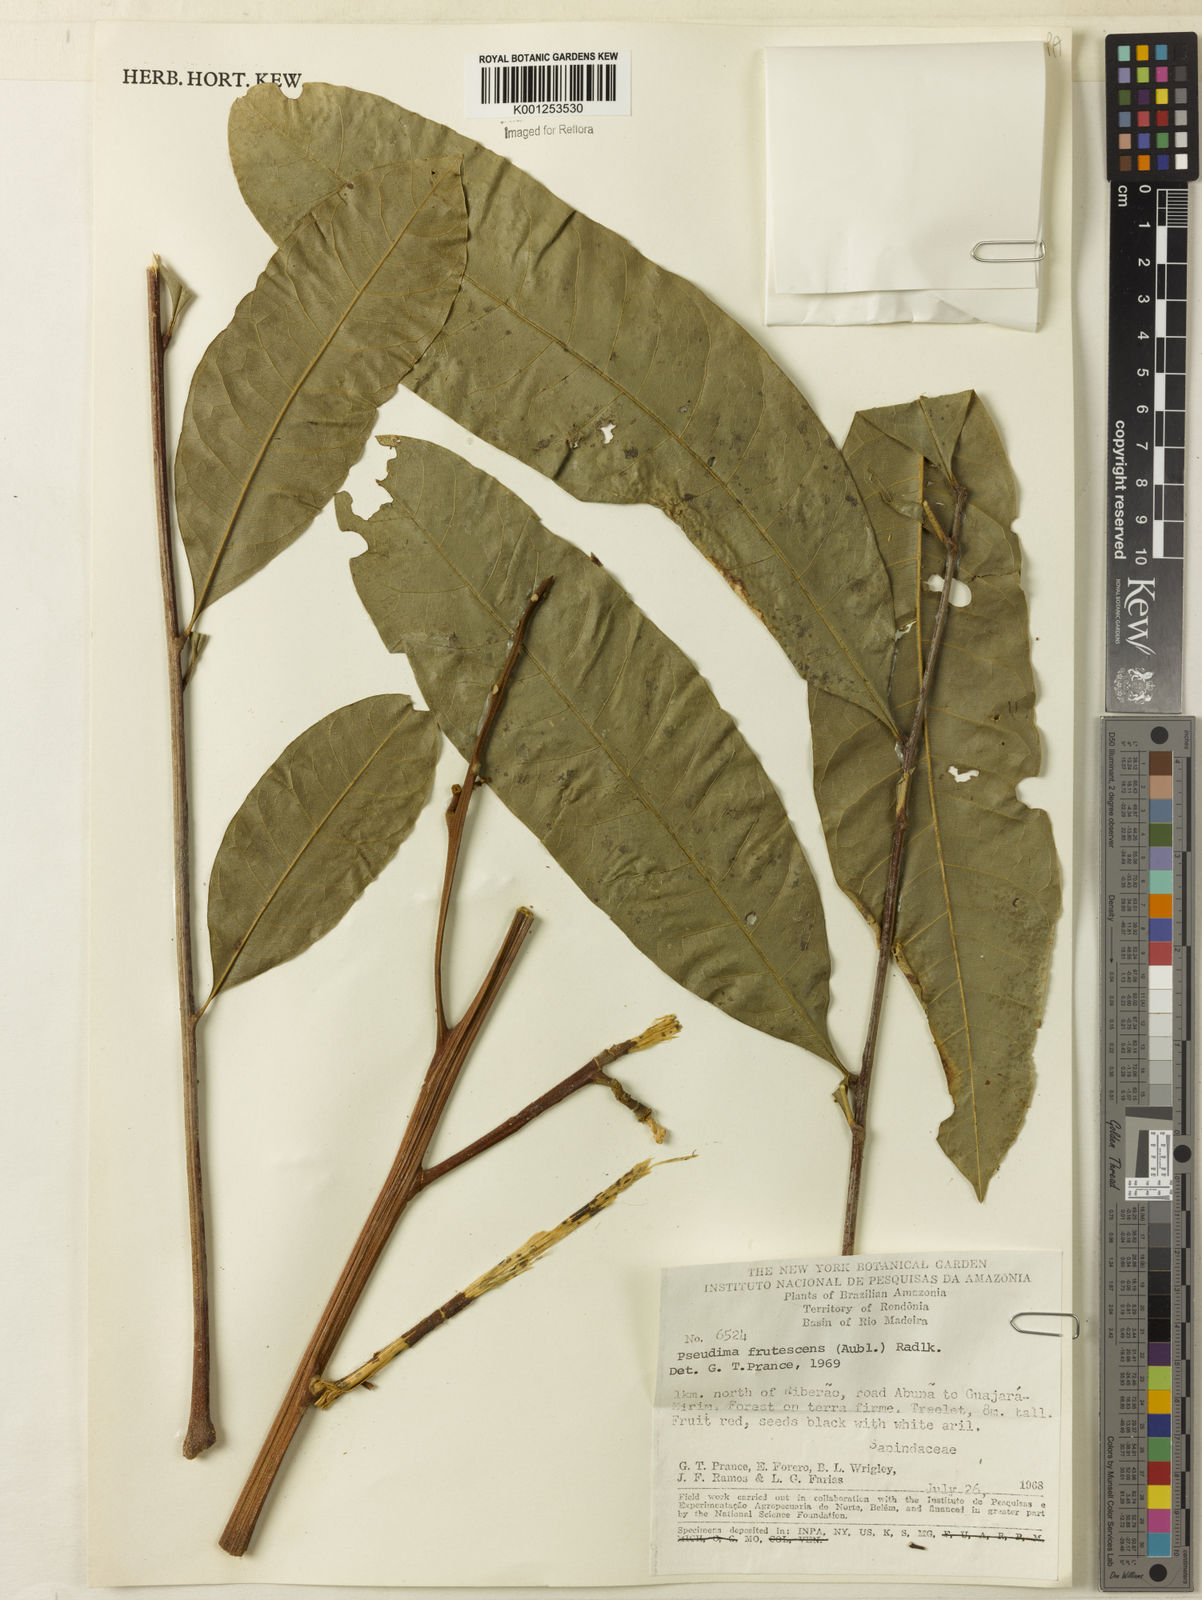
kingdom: Plantae
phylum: Tracheophyta
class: Magnoliopsida
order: Sapindales
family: Sapindaceae
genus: Pseudima
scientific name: Pseudima frutescens
